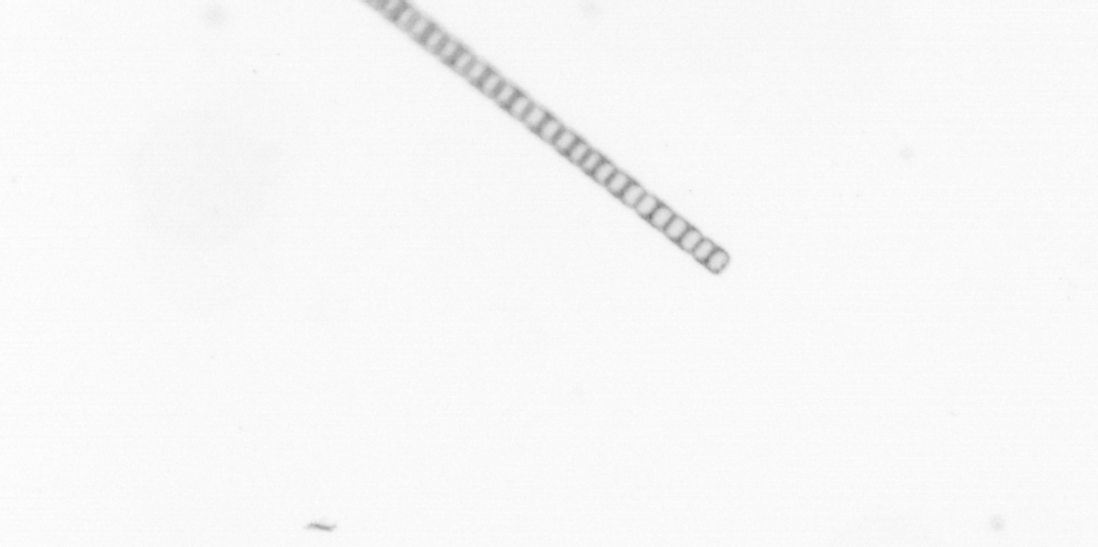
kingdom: Chromista
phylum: Ochrophyta
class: Bacillariophyceae
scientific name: Bacillariophyceae
